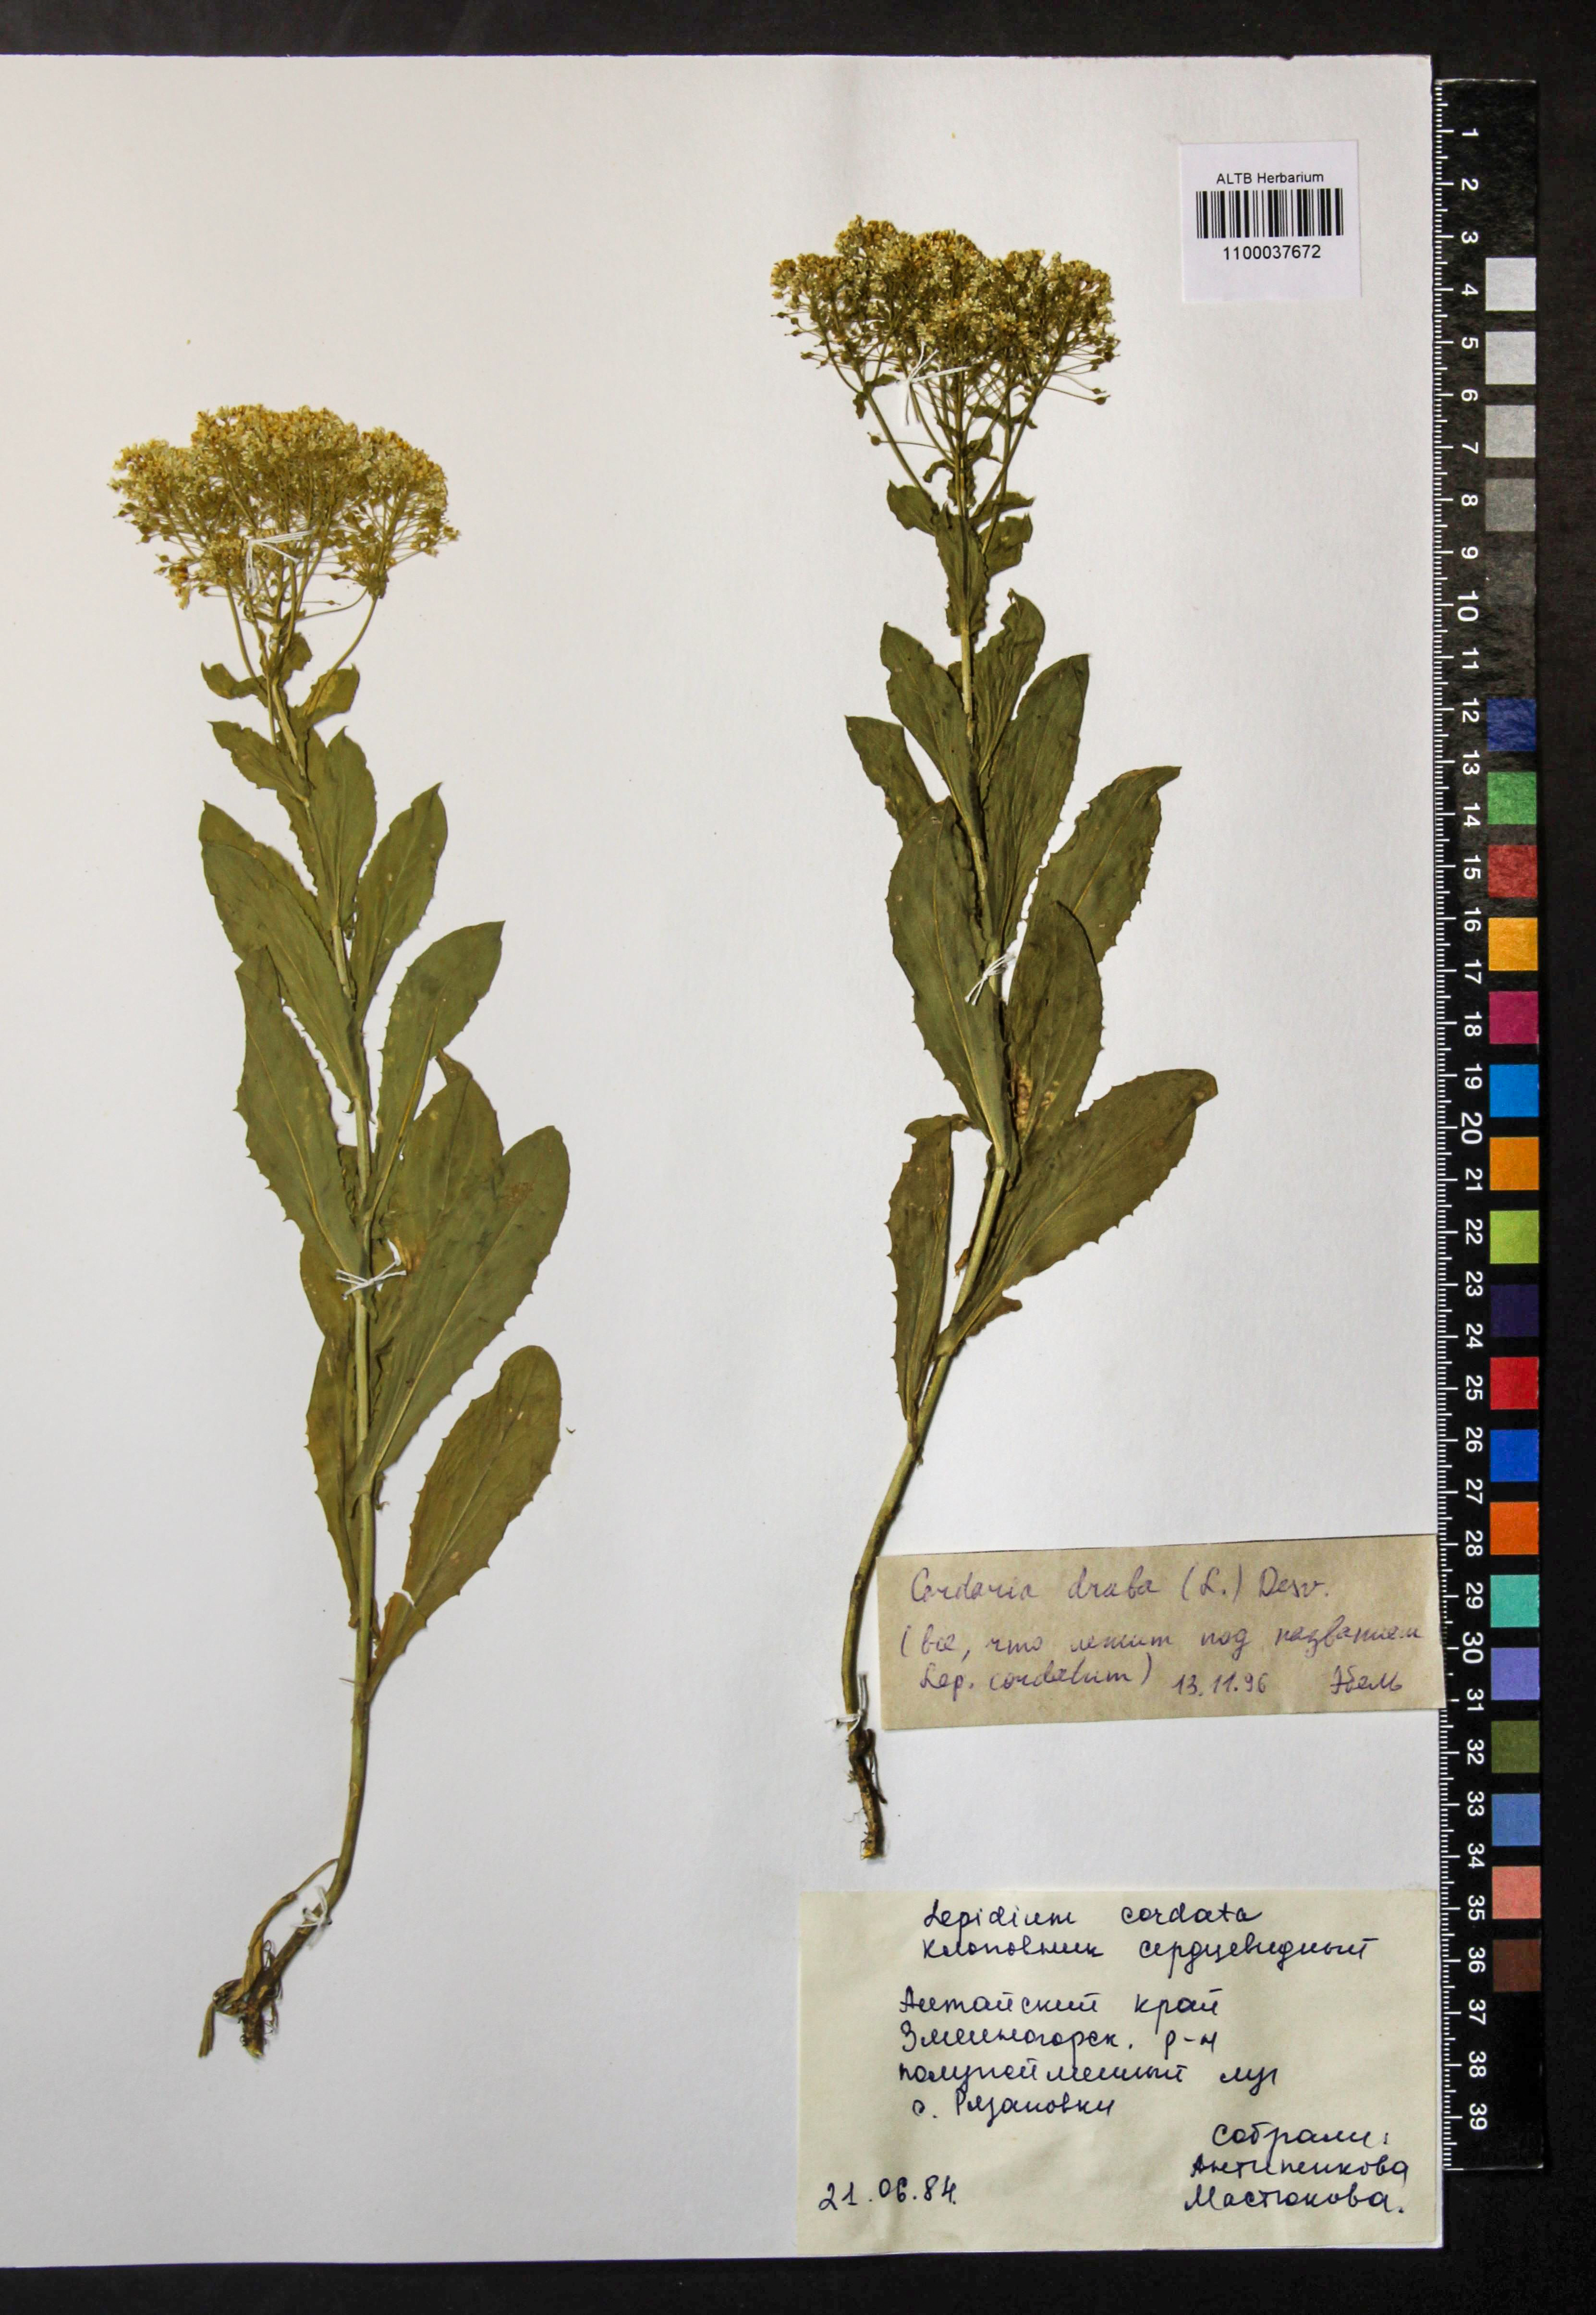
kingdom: Plantae
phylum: Tracheophyta
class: Magnoliopsida
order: Brassicales
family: Brassicaceae
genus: Lepidium
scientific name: Lepidium draba
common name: Hoary cress
